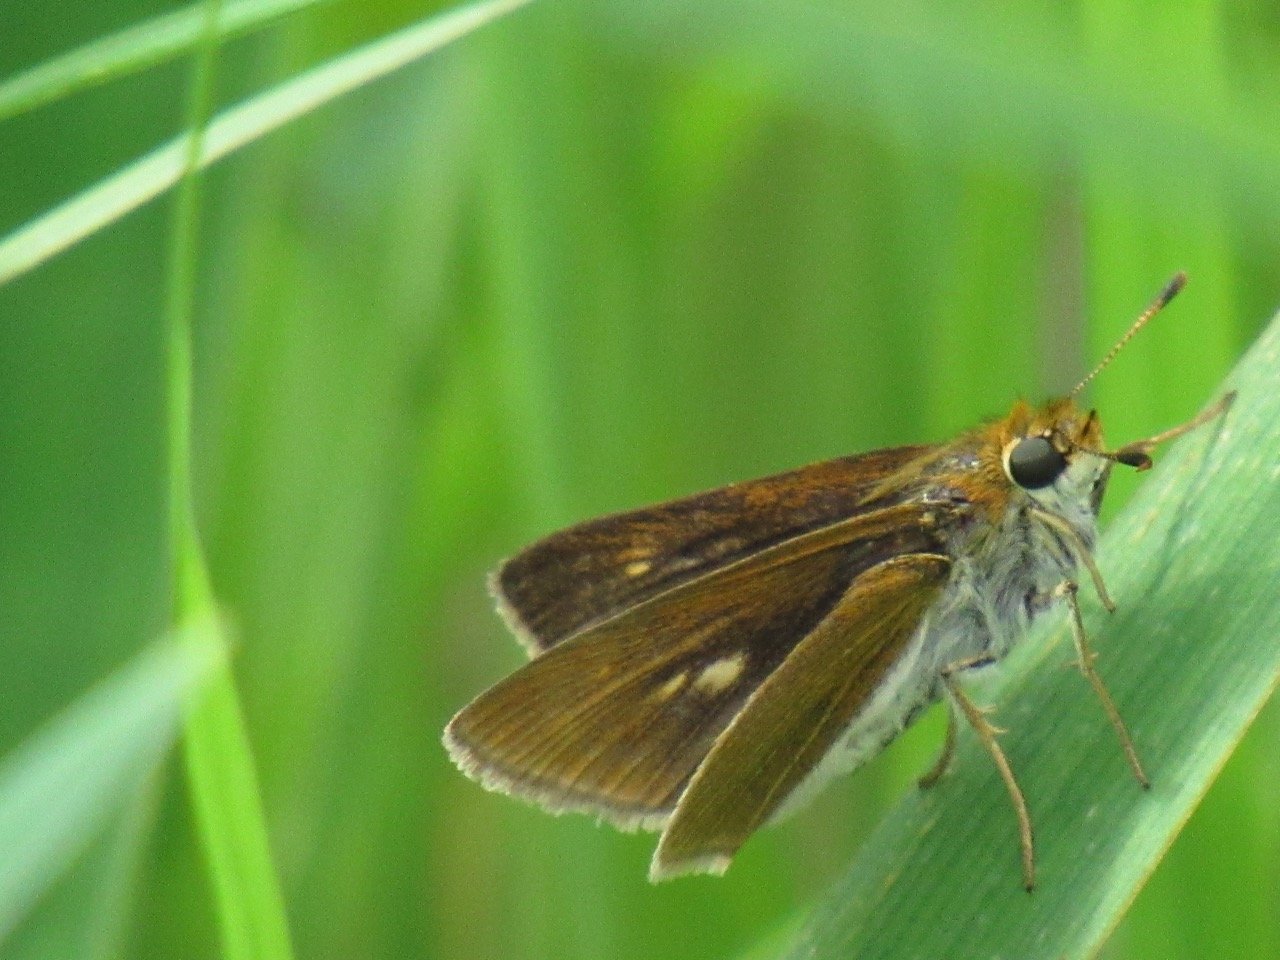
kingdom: Animalia
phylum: Arthropoda
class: Insecta
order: Lepidoptera
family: Hesperiidae
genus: Euphyes
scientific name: Euphyes bimacula
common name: Two-spotted Skipper
